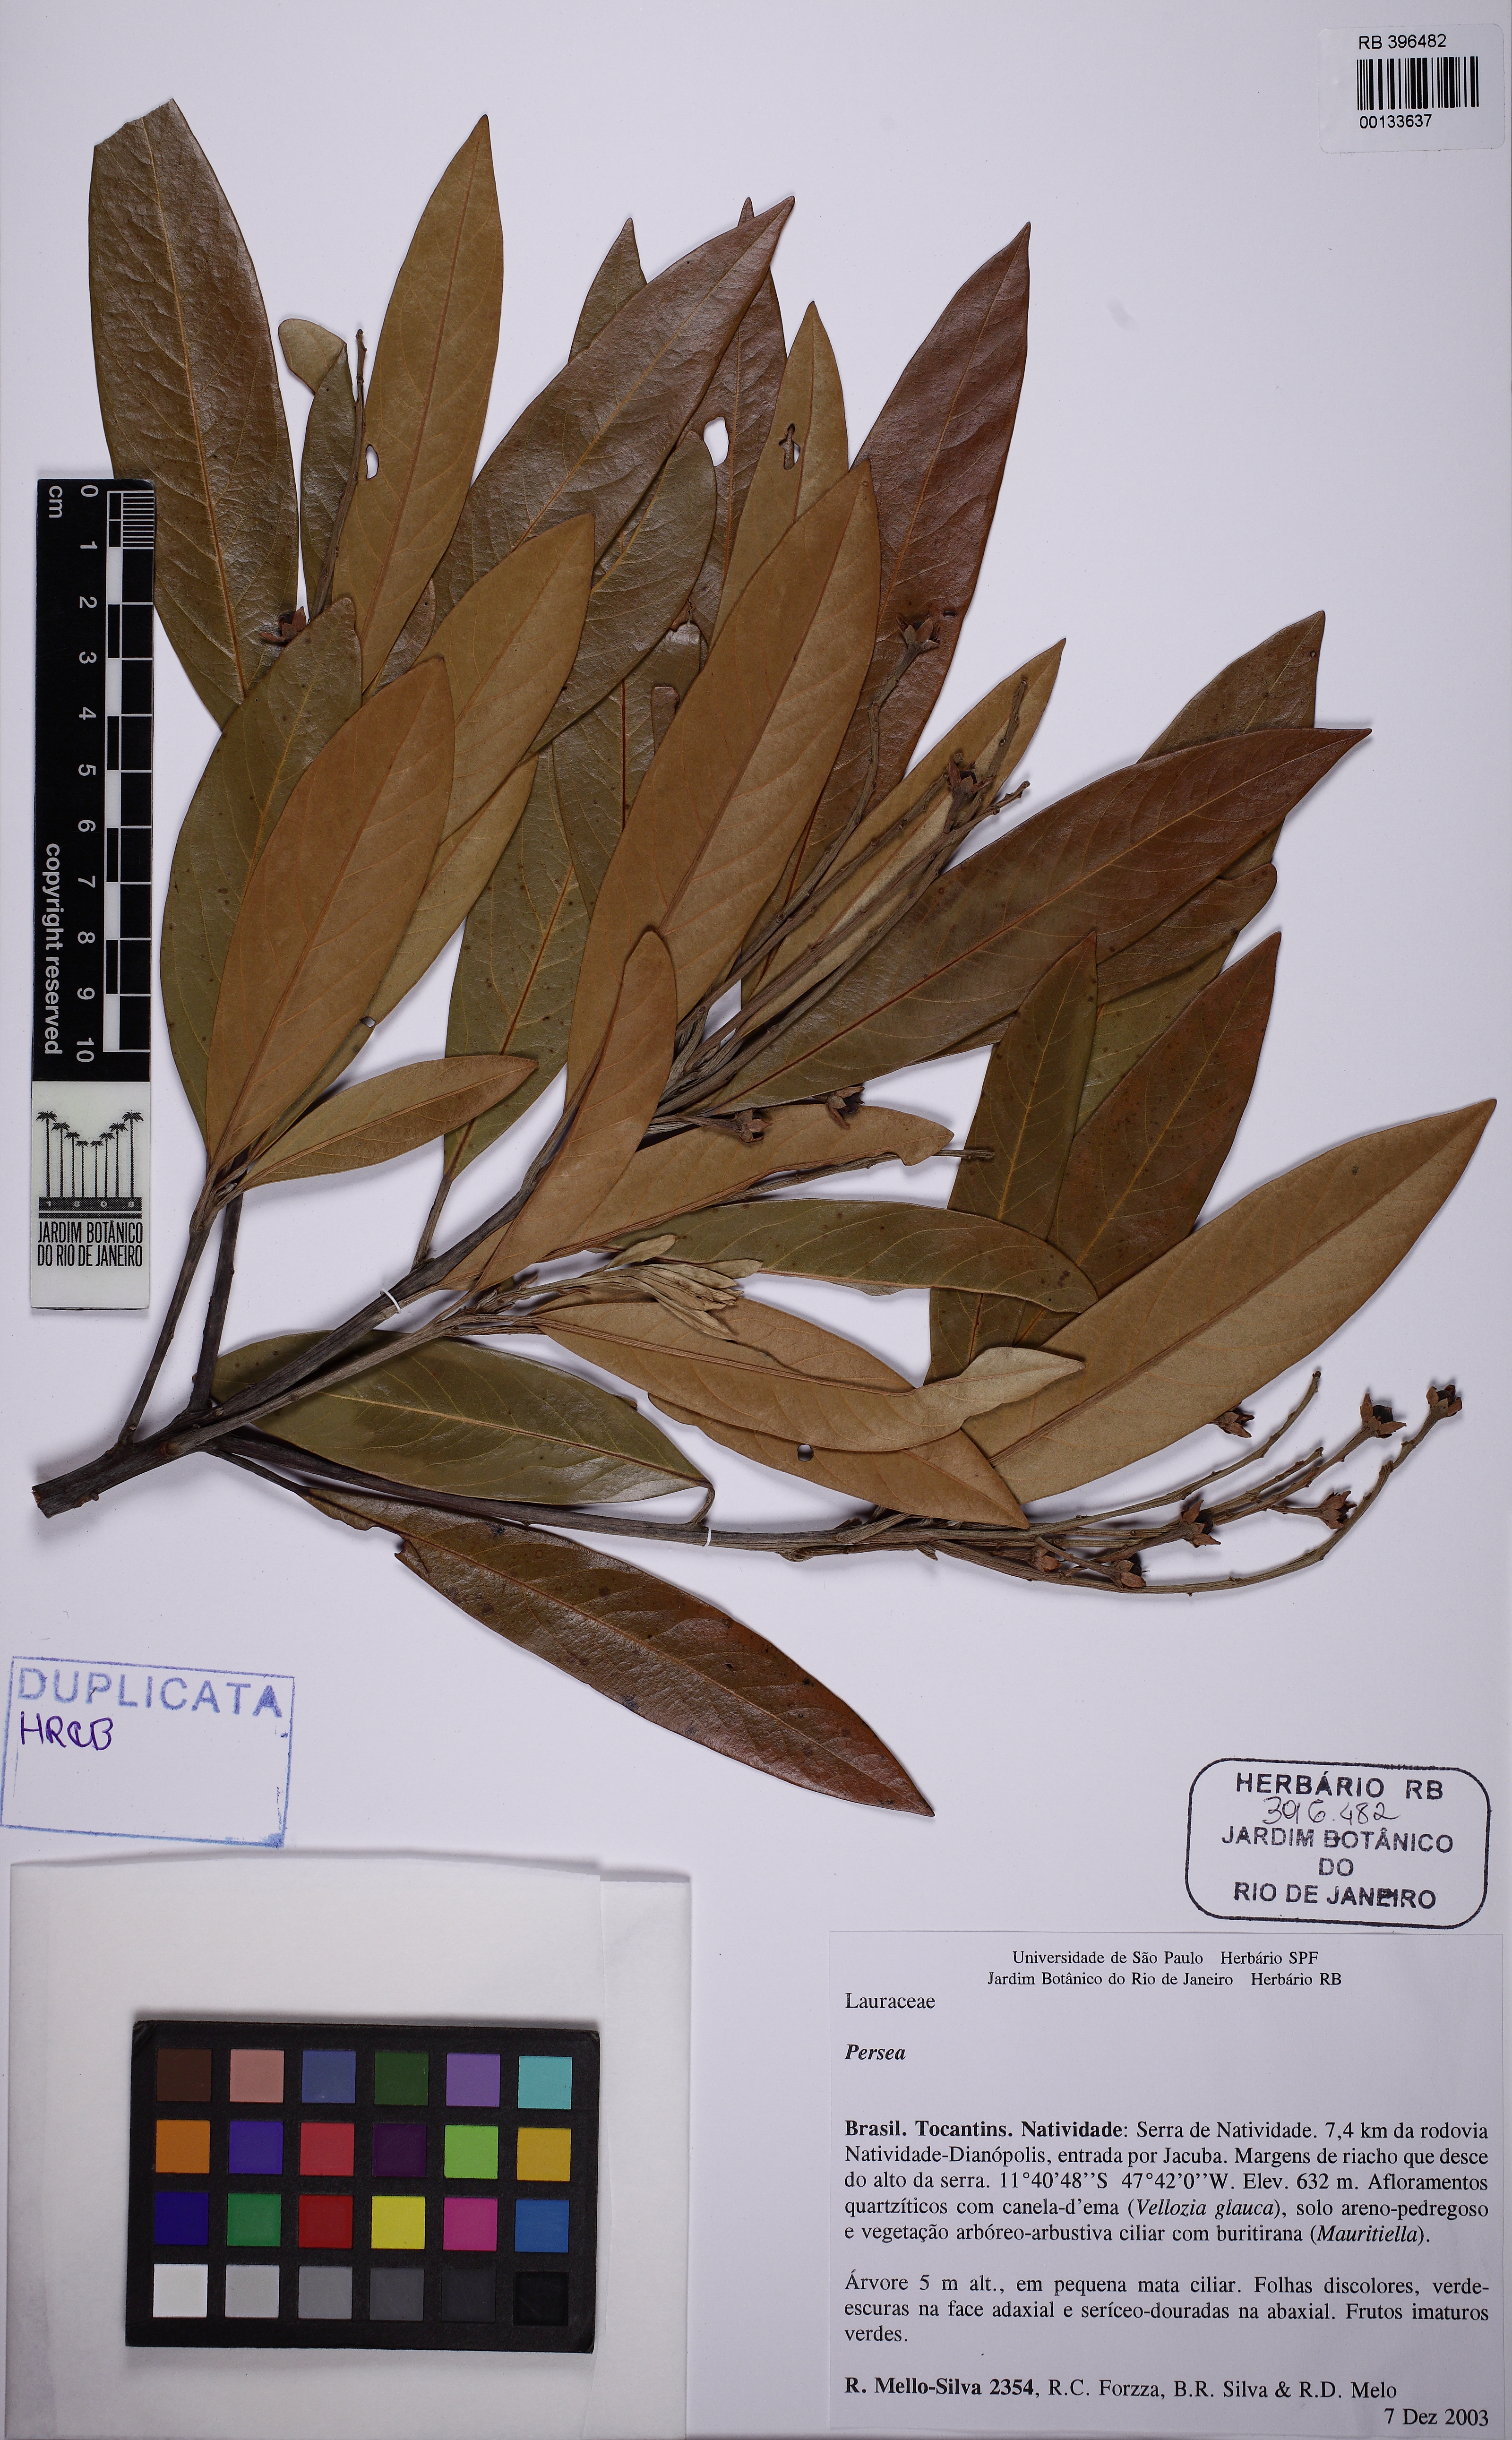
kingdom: Plantae
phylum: Tracheophyta
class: Magnoliopsida
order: Laurales
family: Lauraceae
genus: Persea
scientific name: Persea aurata
